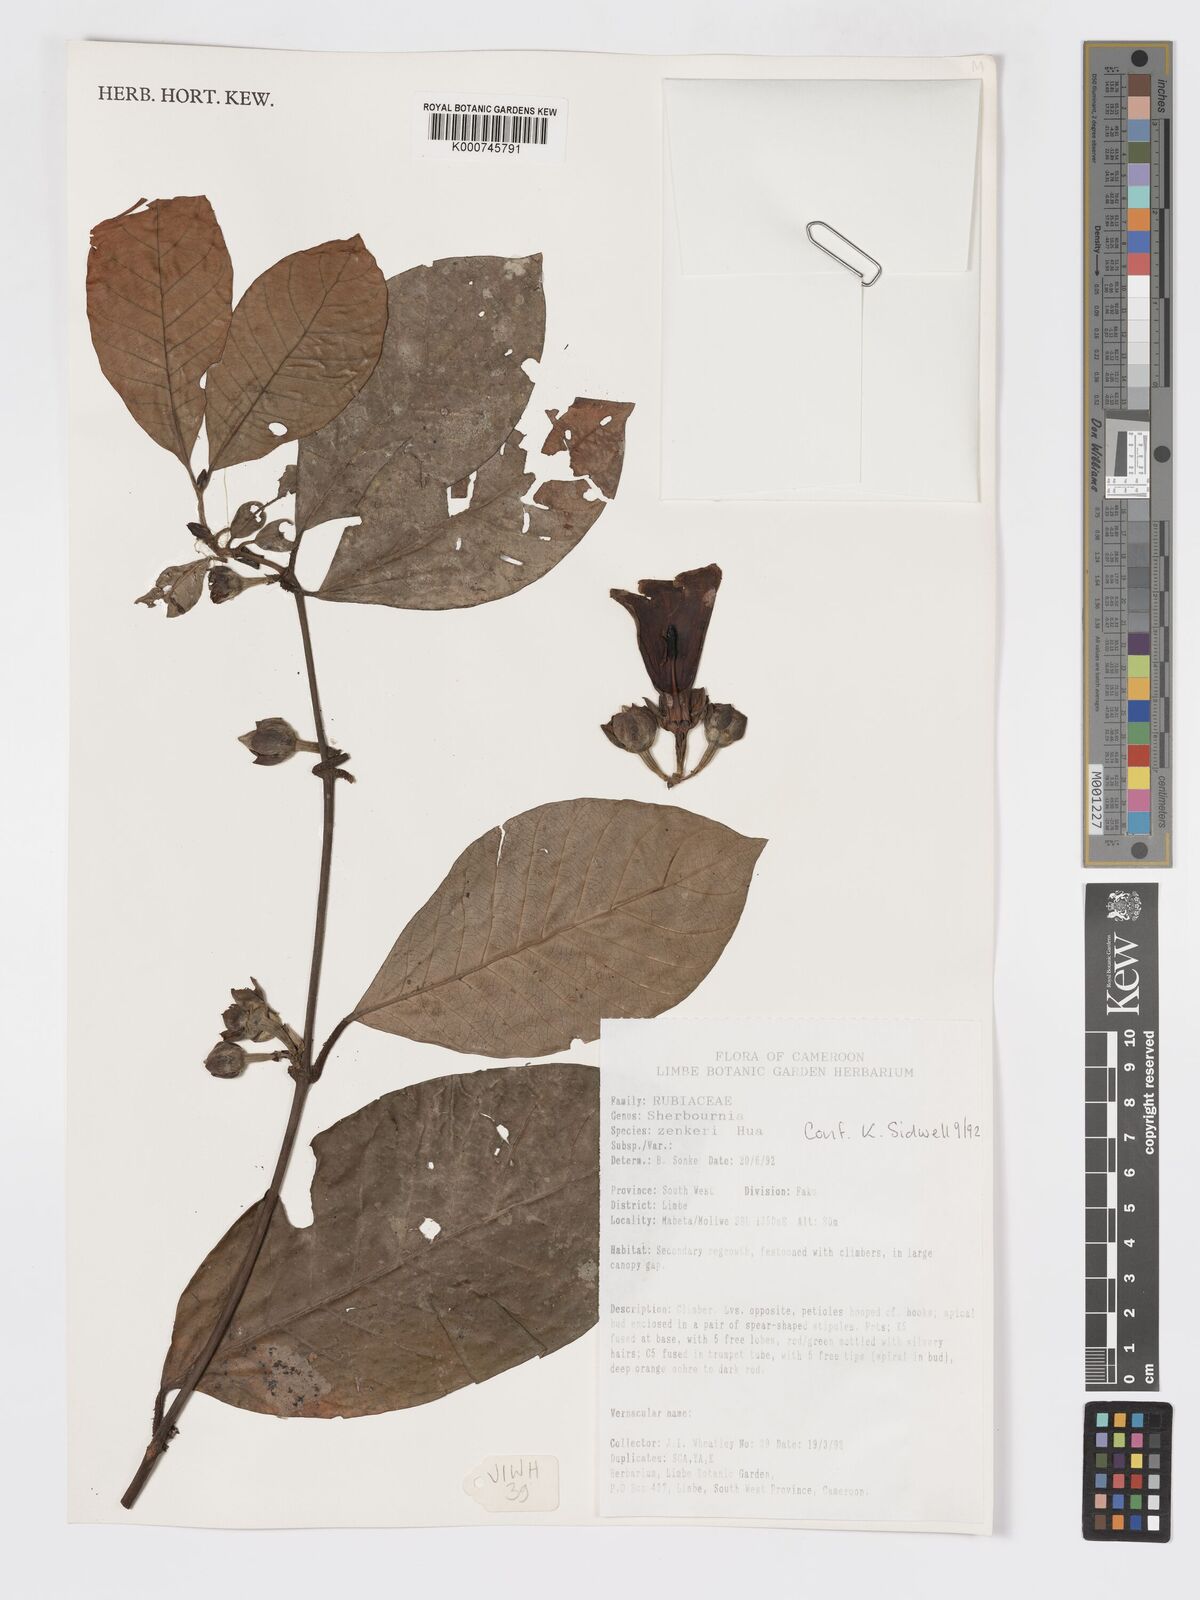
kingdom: Plantae
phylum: Tracheophyta
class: Magnoliopsida
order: Gentianales
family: Rubiaceae
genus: Sherbournia
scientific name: Sherbournia zenkeri
